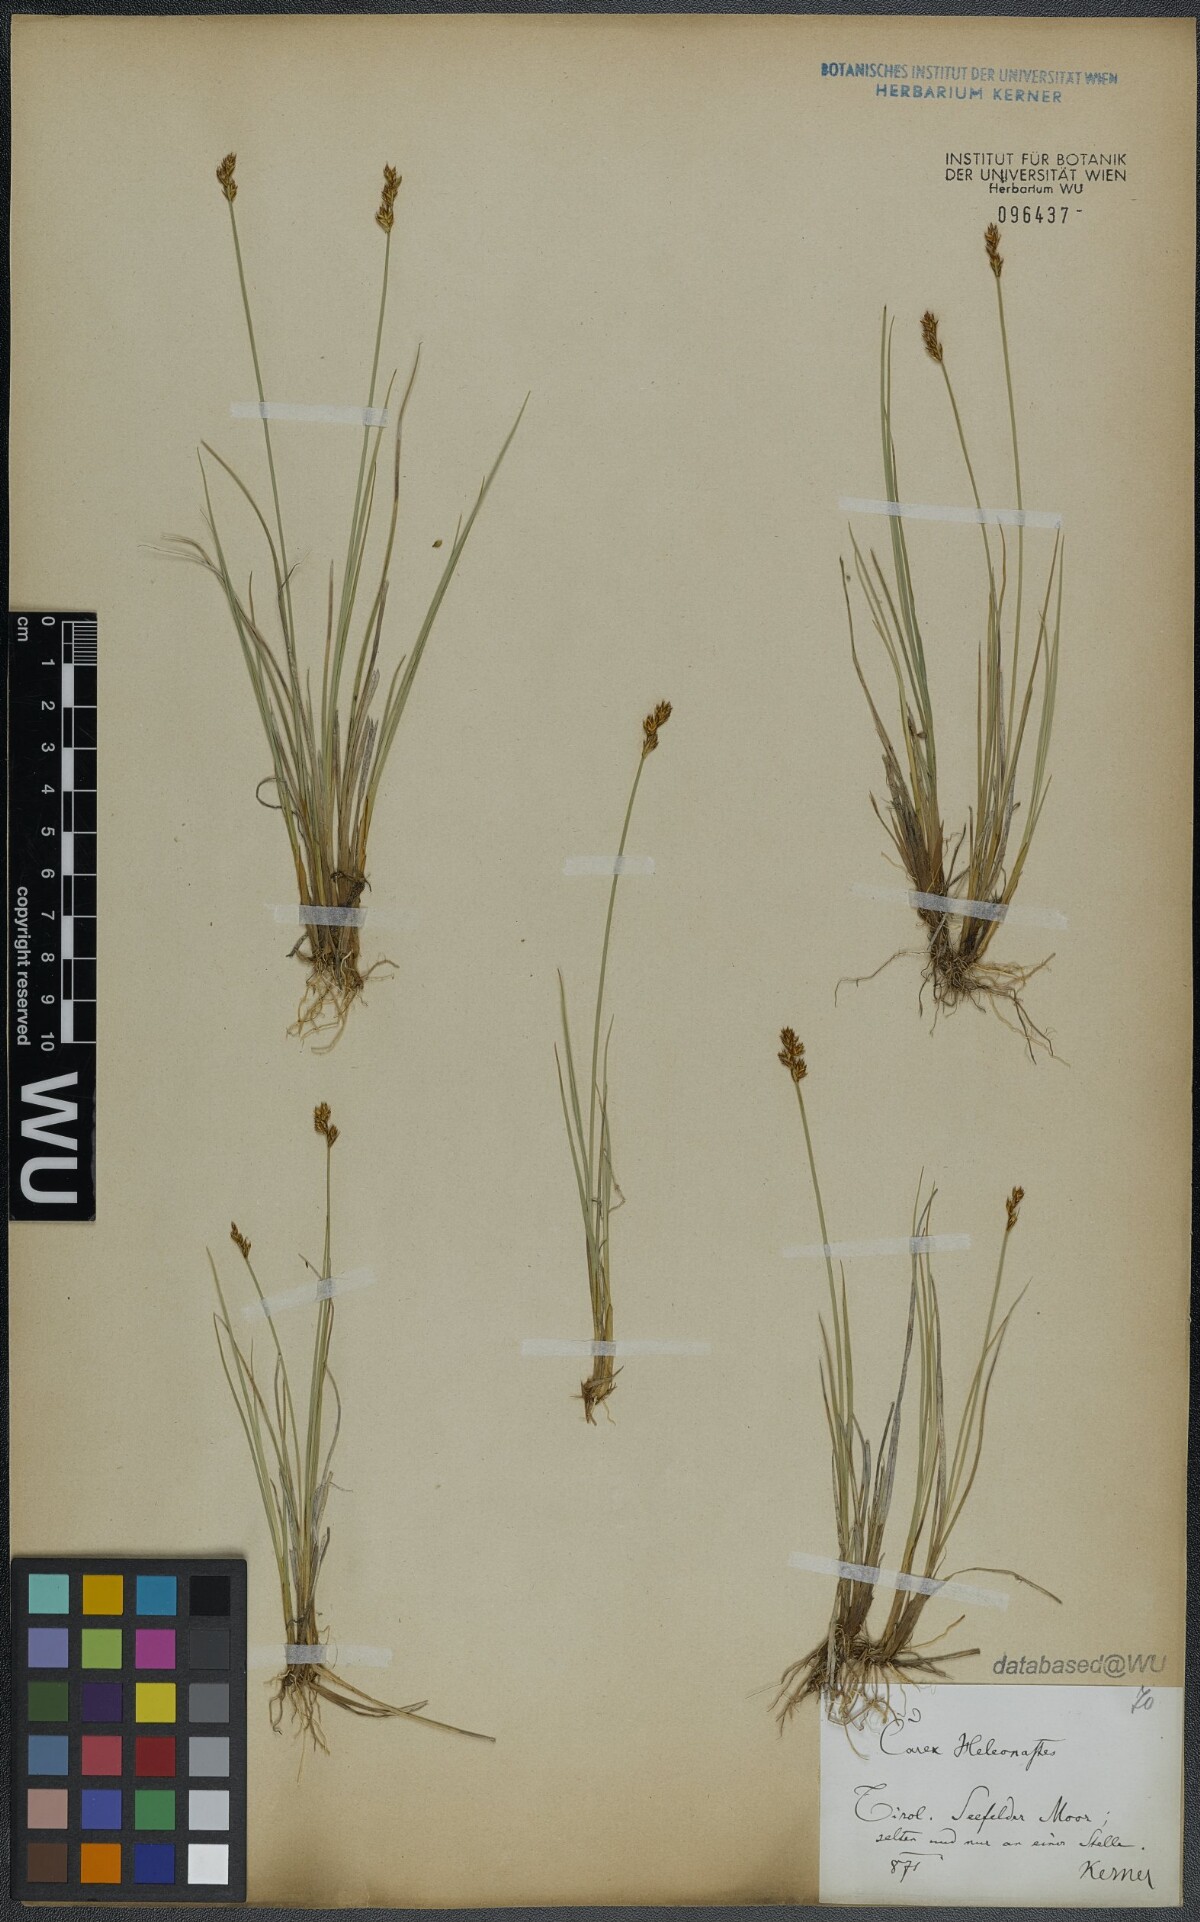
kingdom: Plantae
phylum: Tracheophyta
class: Liliopsida
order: Poales
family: Cyperaceae
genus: Carex
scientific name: Carex heleonastes
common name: Hudson bay sedge
